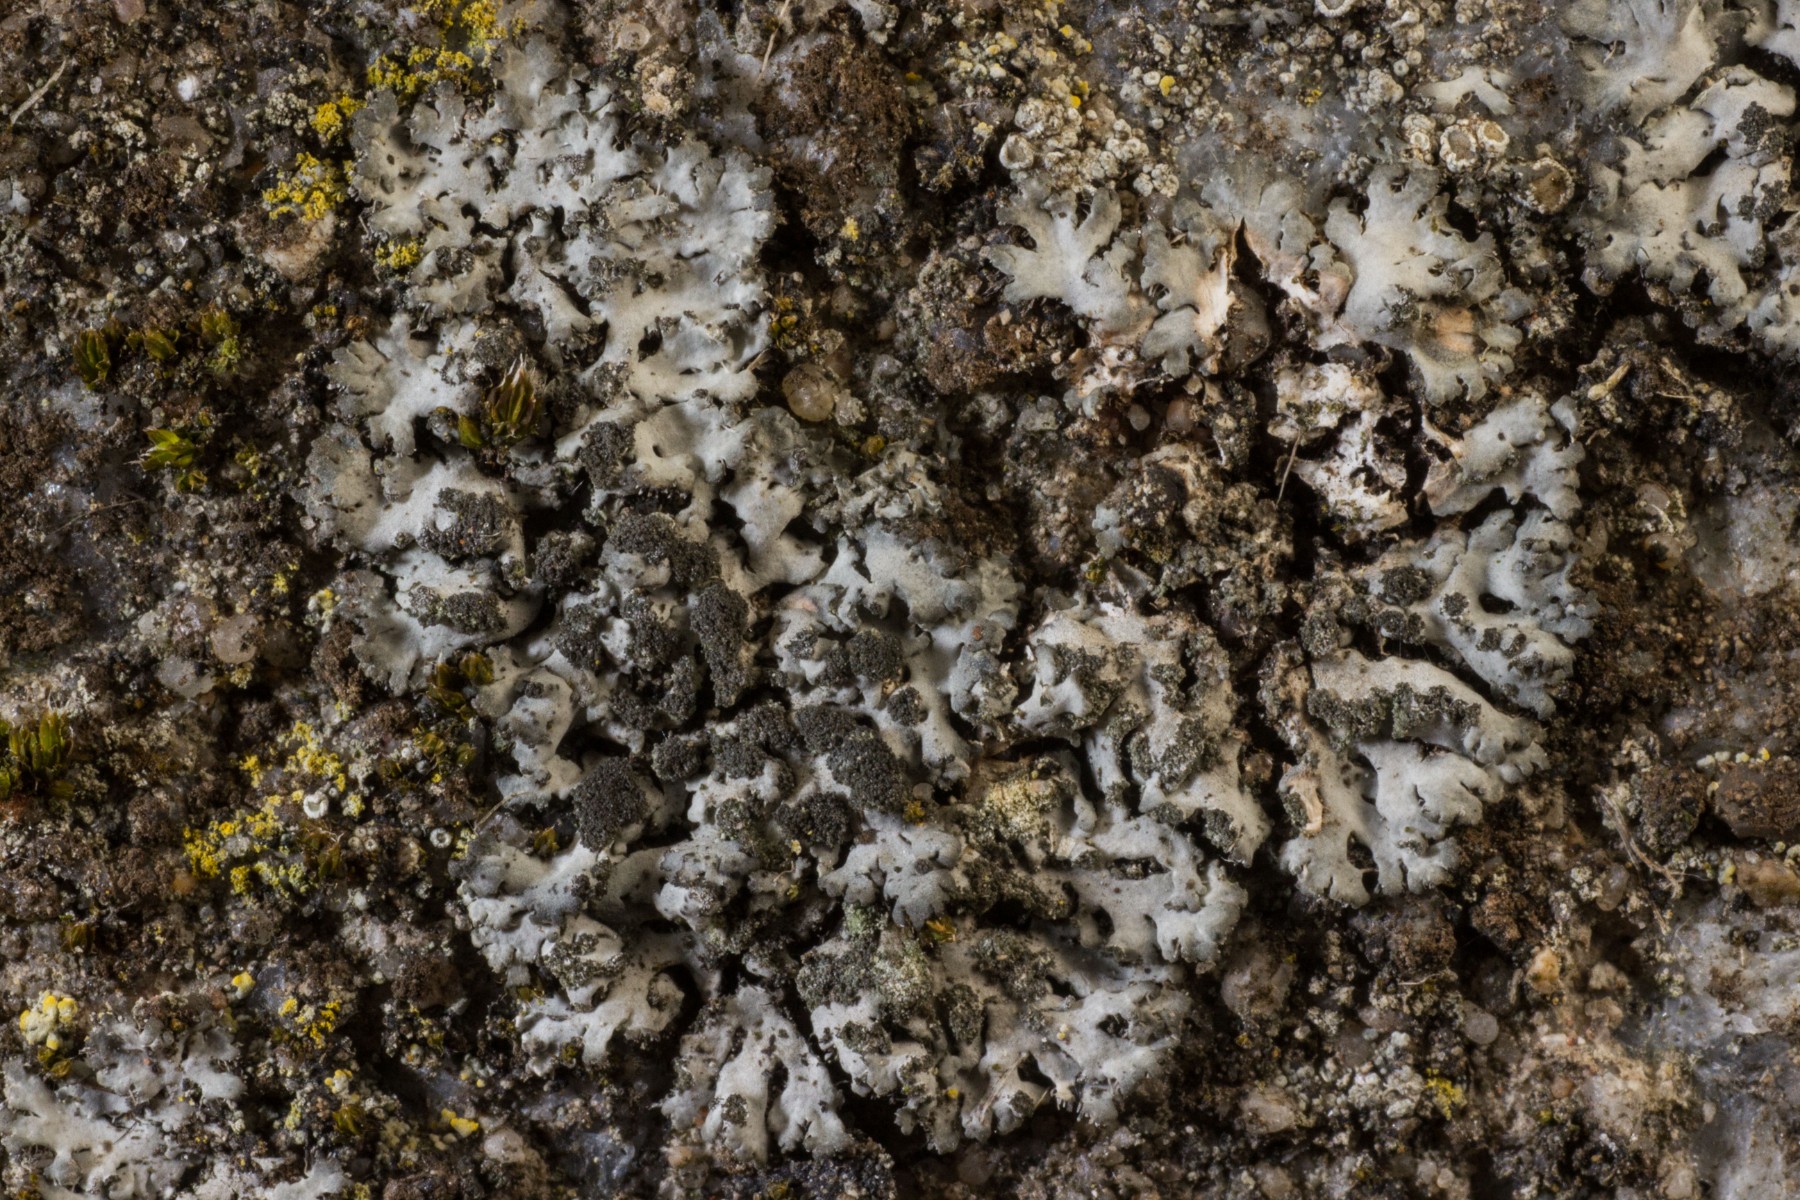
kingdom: Fungi
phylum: Ascomycota
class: Lecanoromycetes
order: Caliciales
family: Physciaceae
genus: Phaeophyscia
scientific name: Phaeophyscia orbicularis
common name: grågrøn rosetlav
